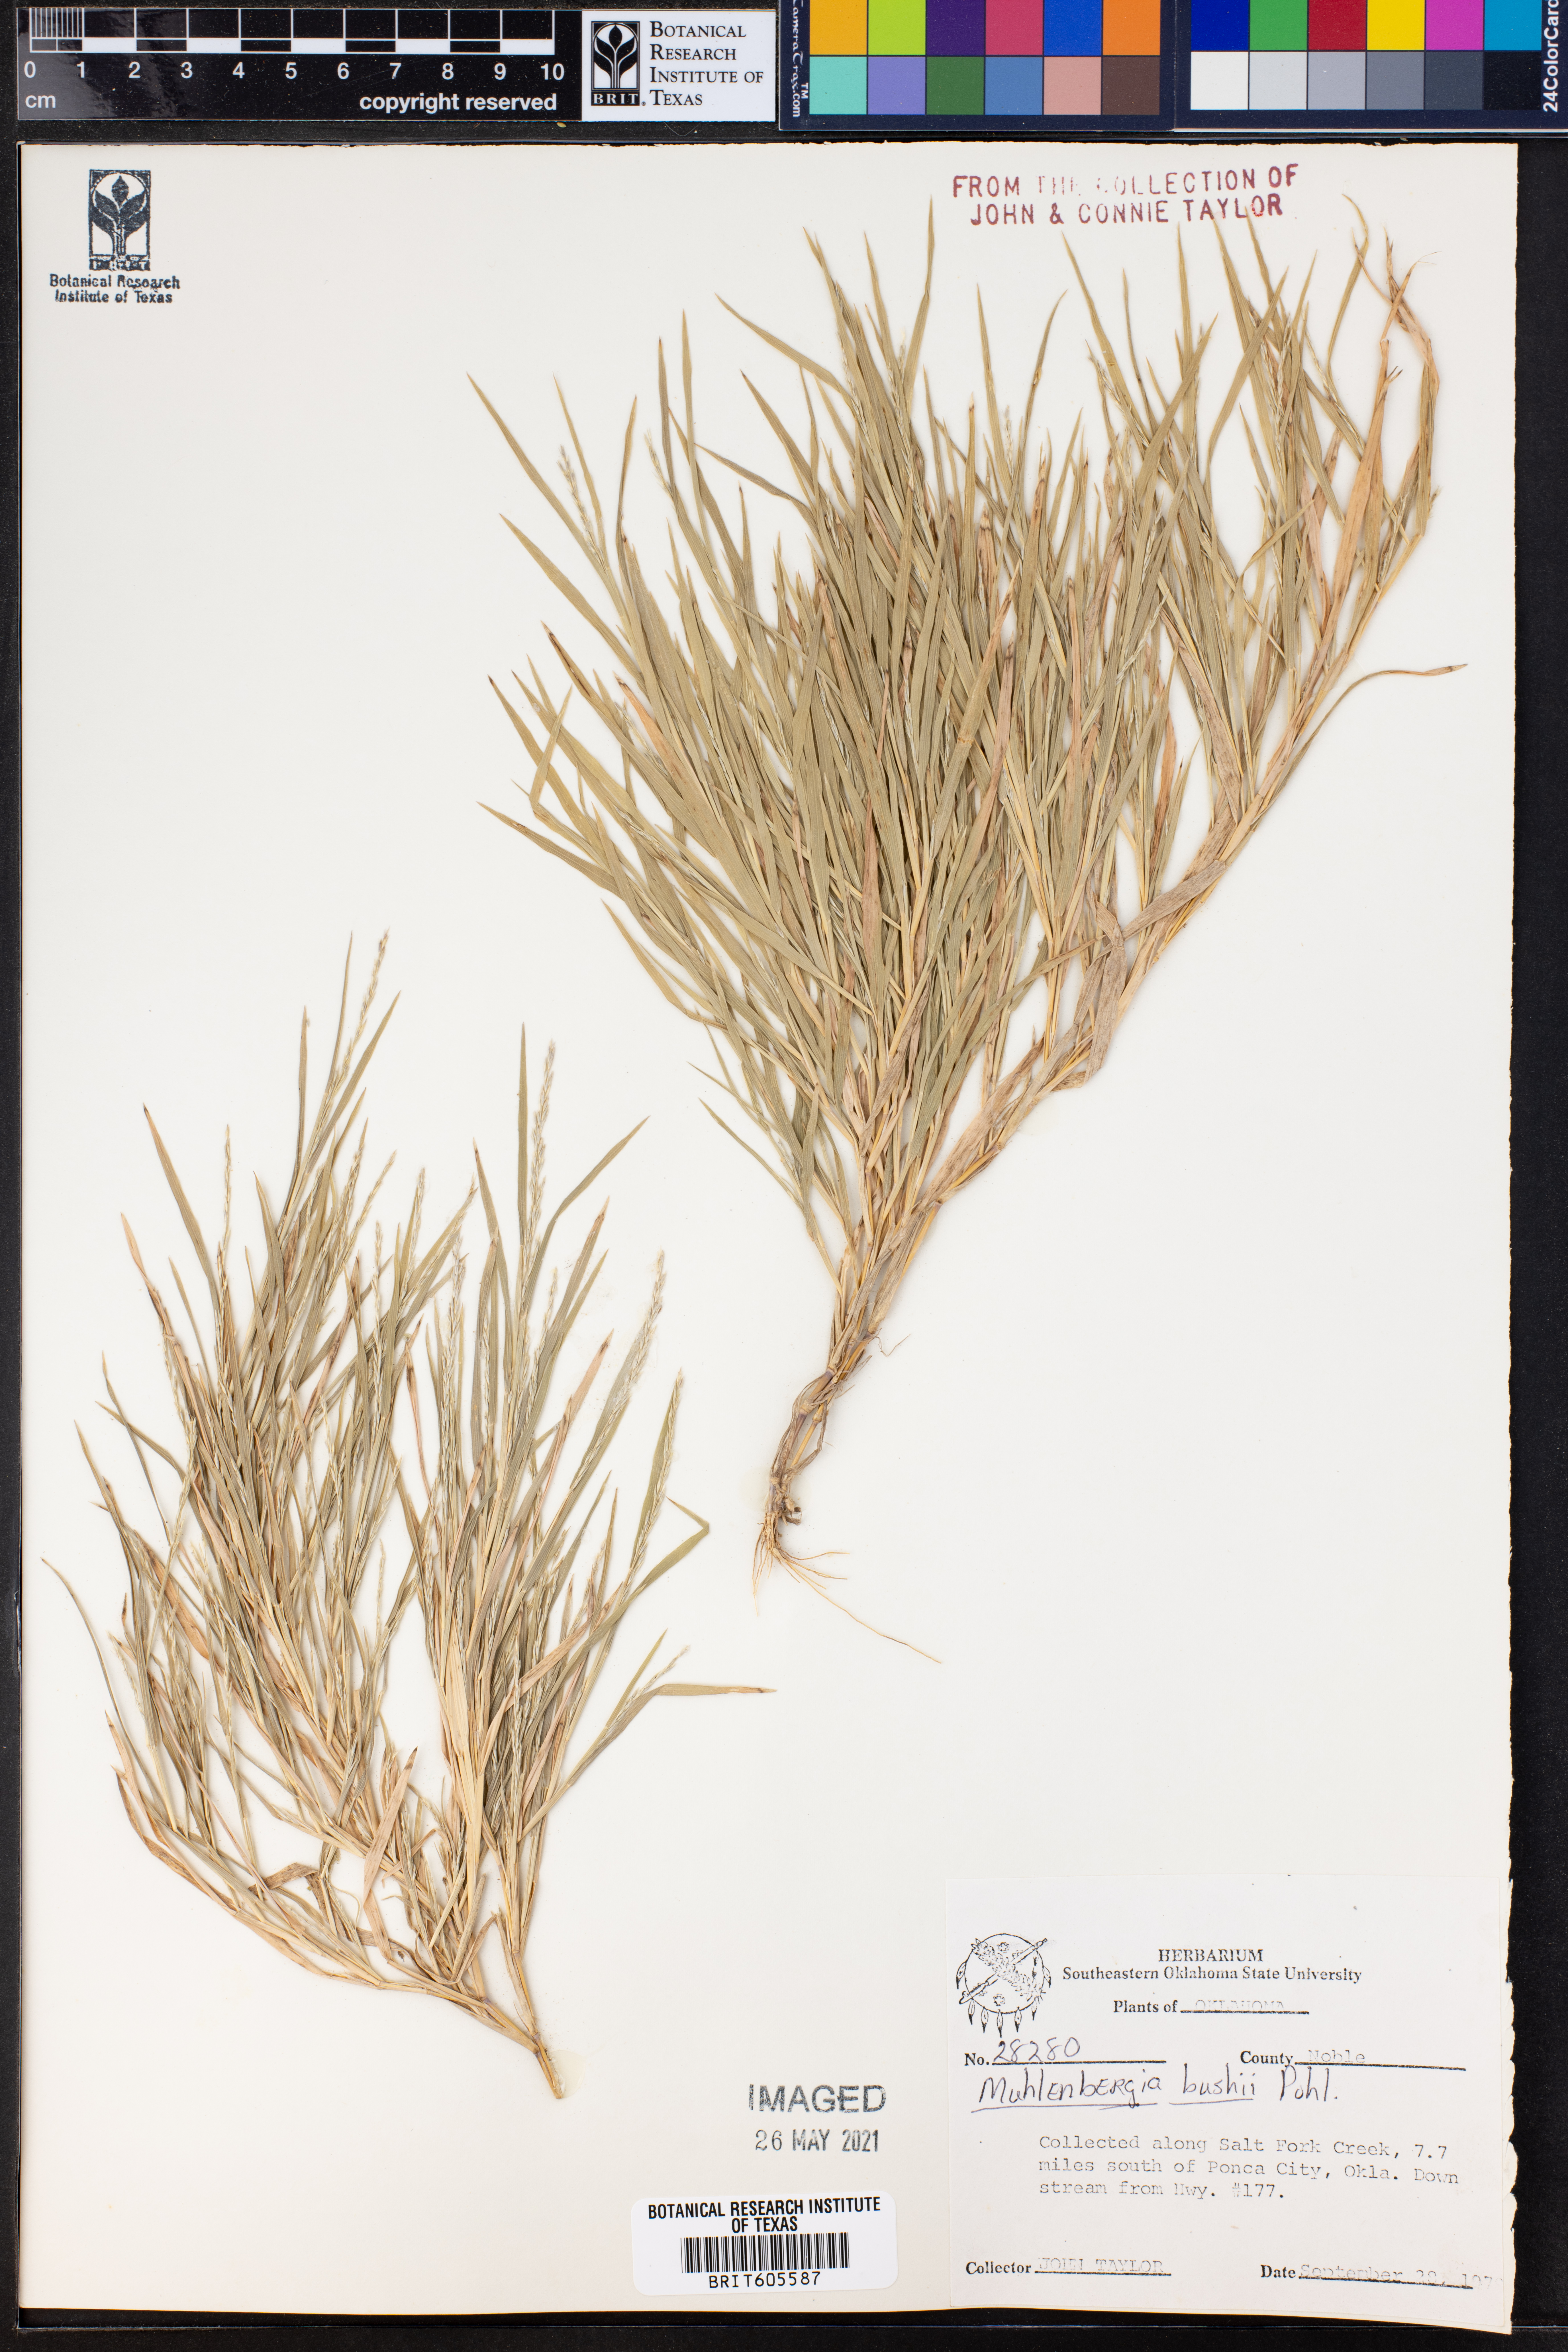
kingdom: Plantae
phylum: Tracheophyta
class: Liliopsida
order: Poales
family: Poaceae
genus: Muhlenbergia
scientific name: Muhlenbergia bushii
